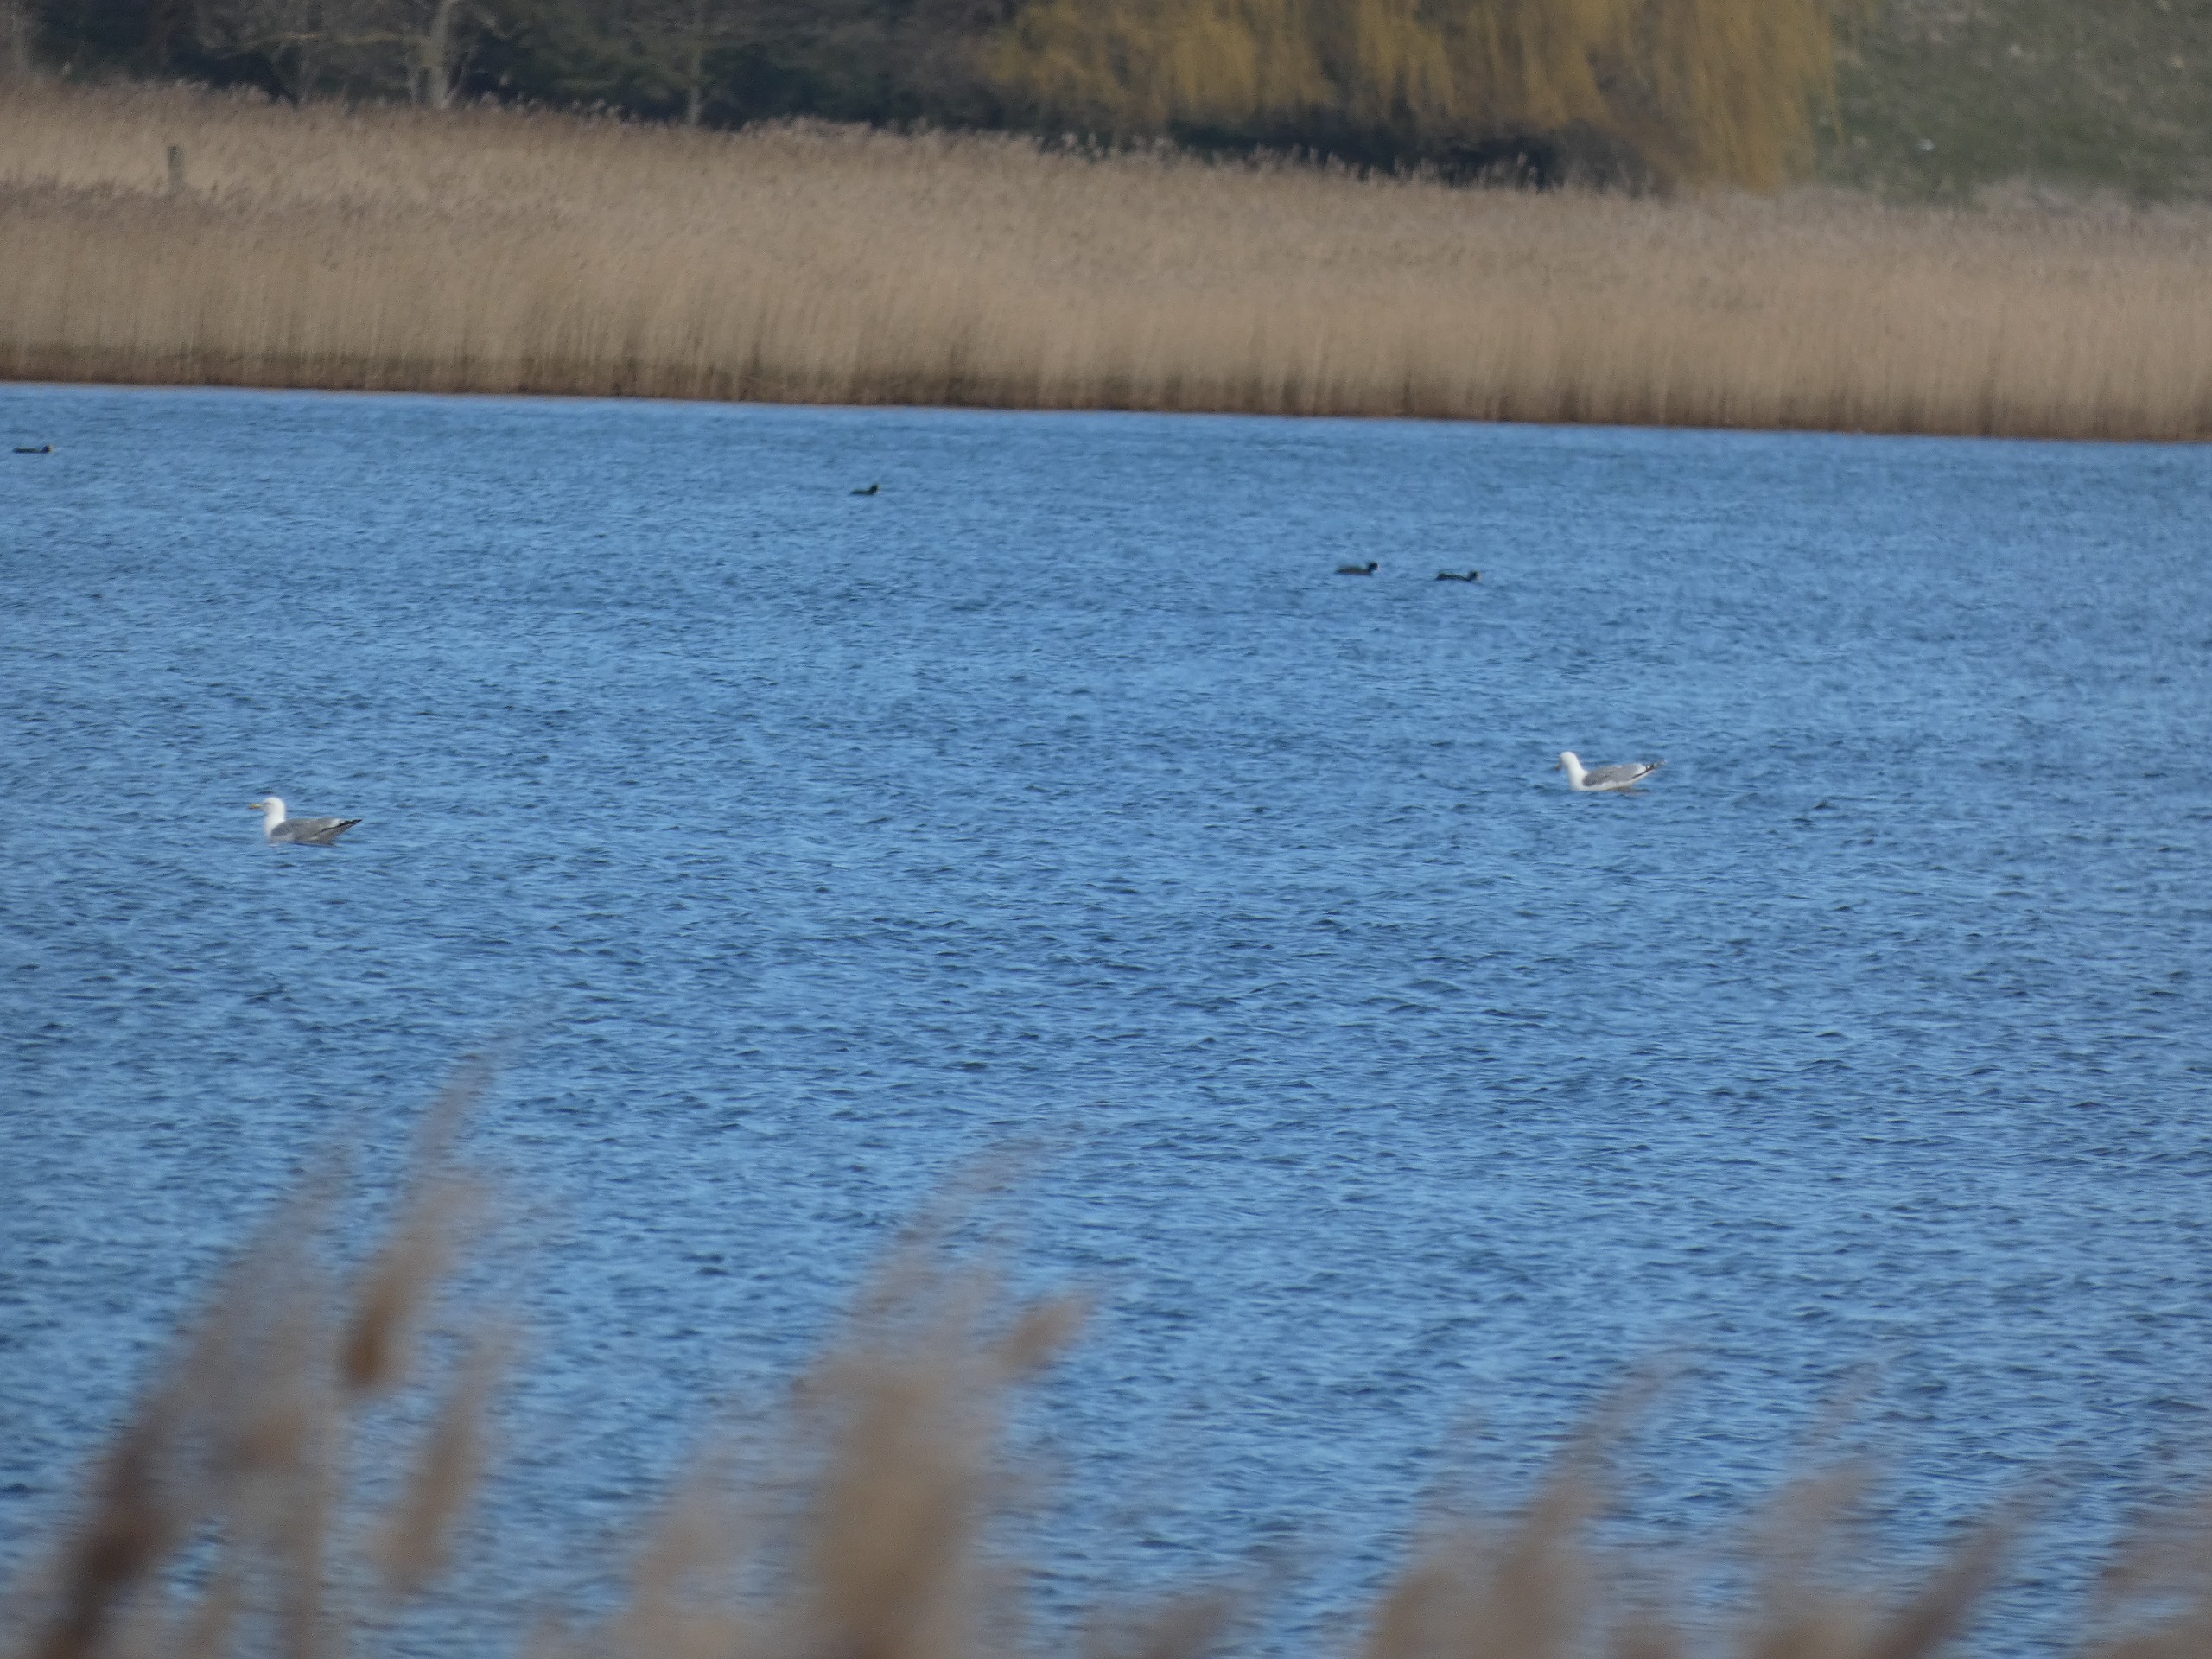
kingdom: Animalia
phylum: Chordata
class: Aves
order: Charadriiformes
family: Laridae
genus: Larus
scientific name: Larus argentatus
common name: Sølvmåge
